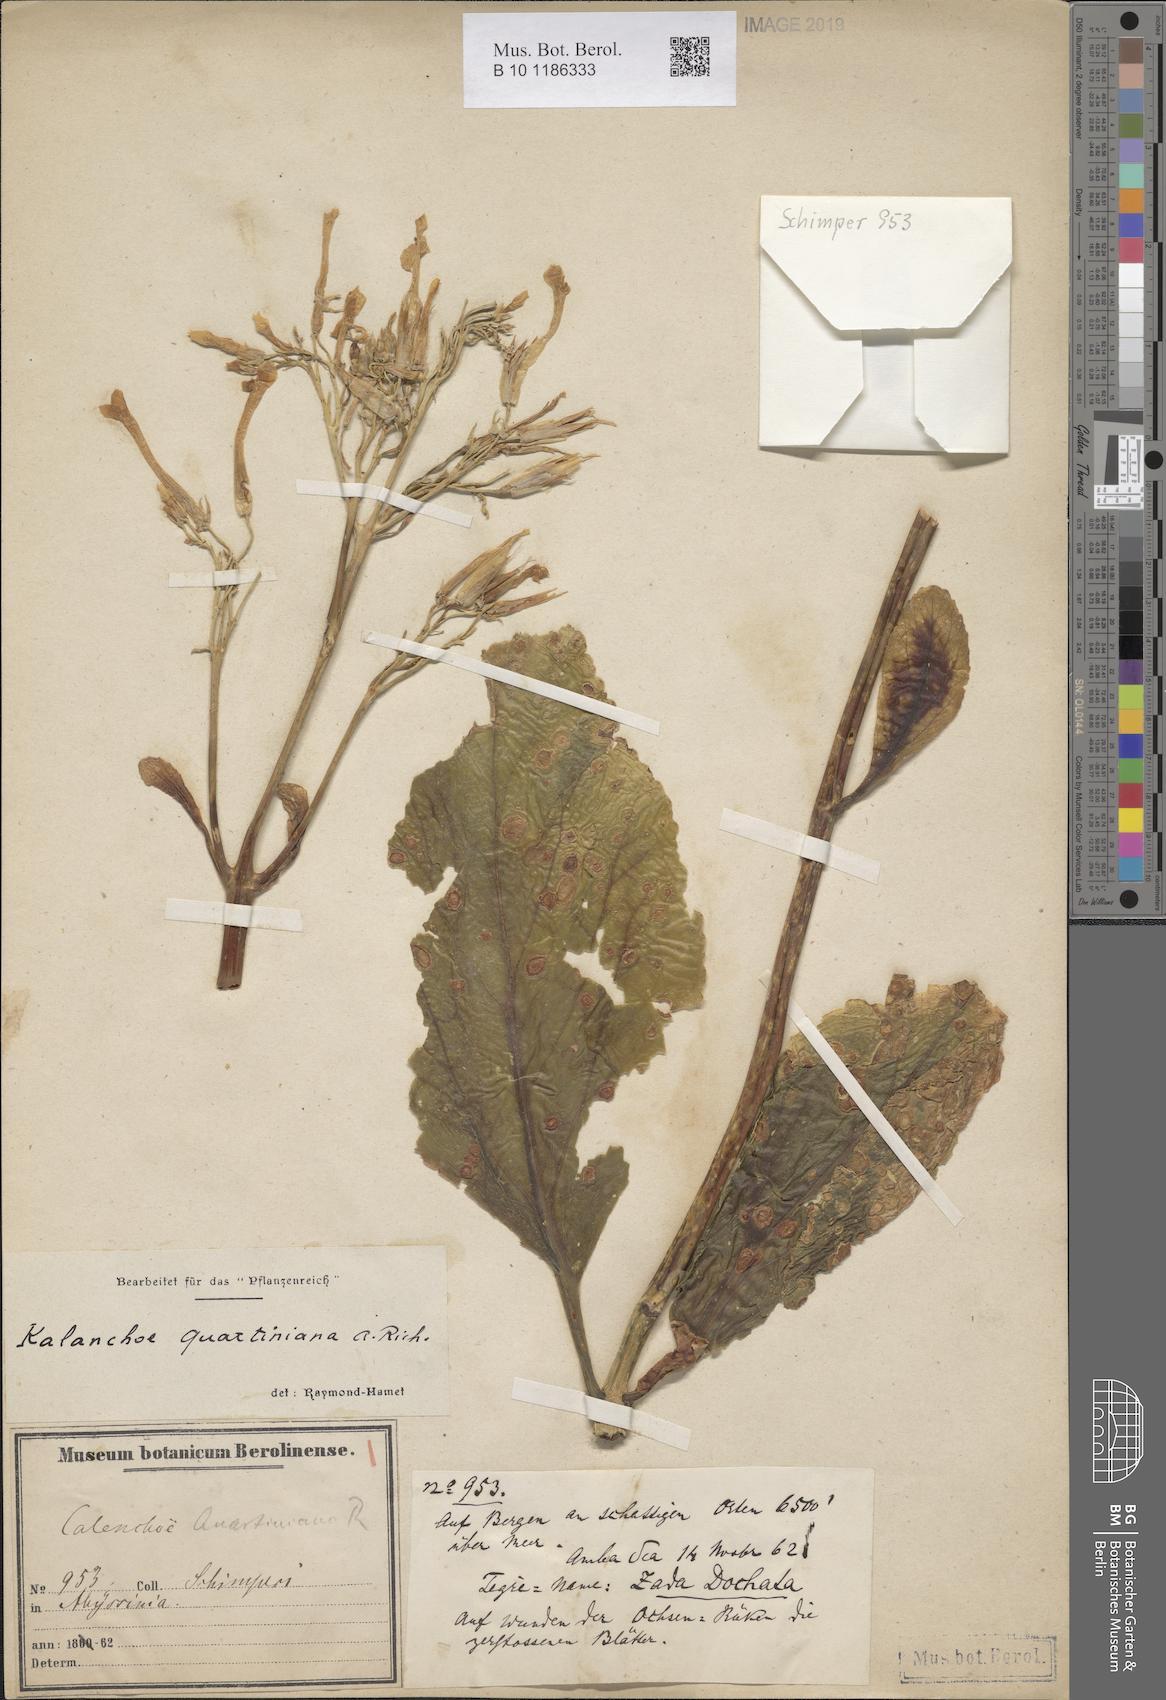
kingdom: Plantae
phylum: Tracheophyta
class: Magnoliopsida
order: Saxifragales
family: Crassulaceae
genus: Kalanchoe
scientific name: Kalanchoe quartiniana
